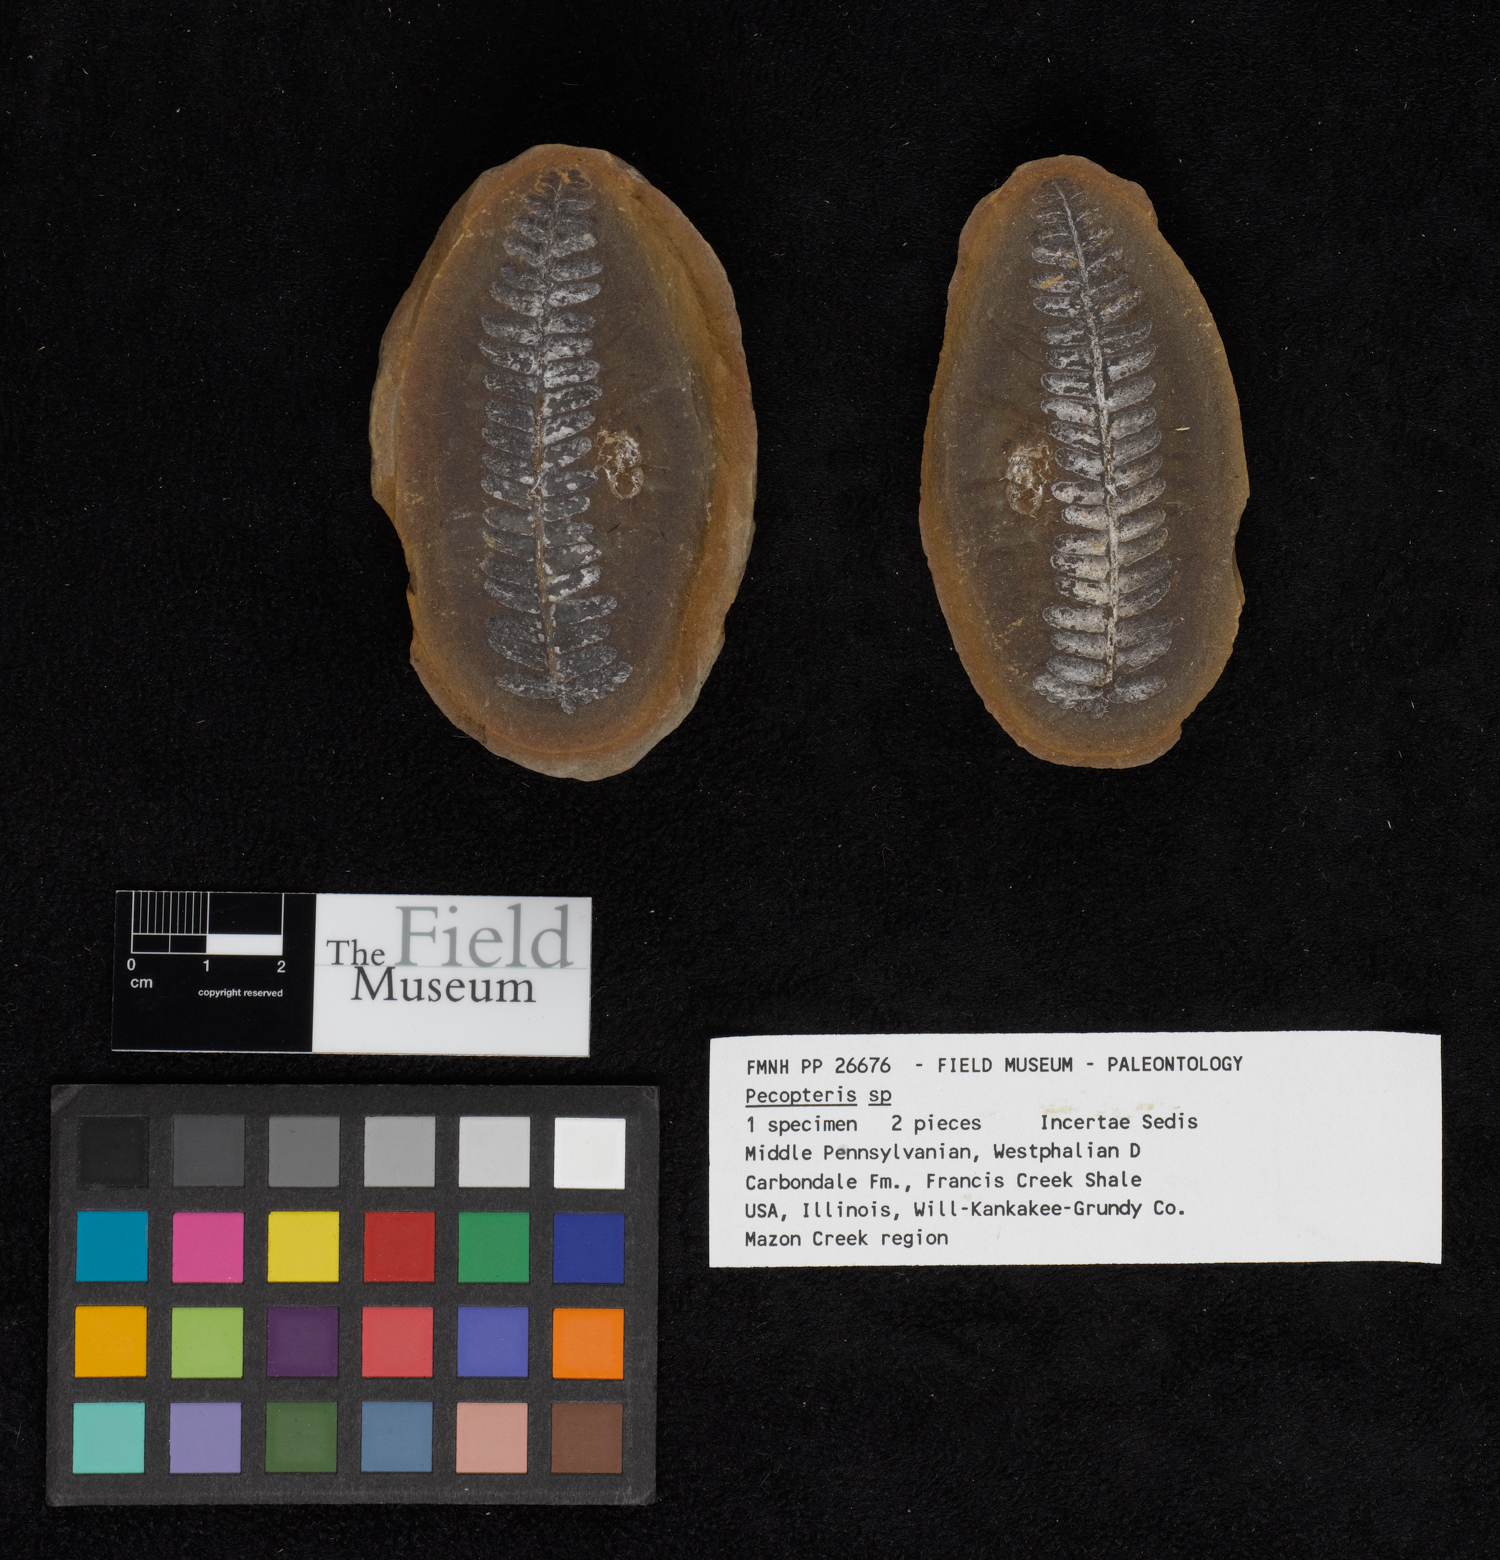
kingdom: Plantae
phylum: Tracheophyta
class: Polypodiopsida
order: Marattiales
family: Asterothecaceae
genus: Pecopteris
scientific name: Pecopteris
